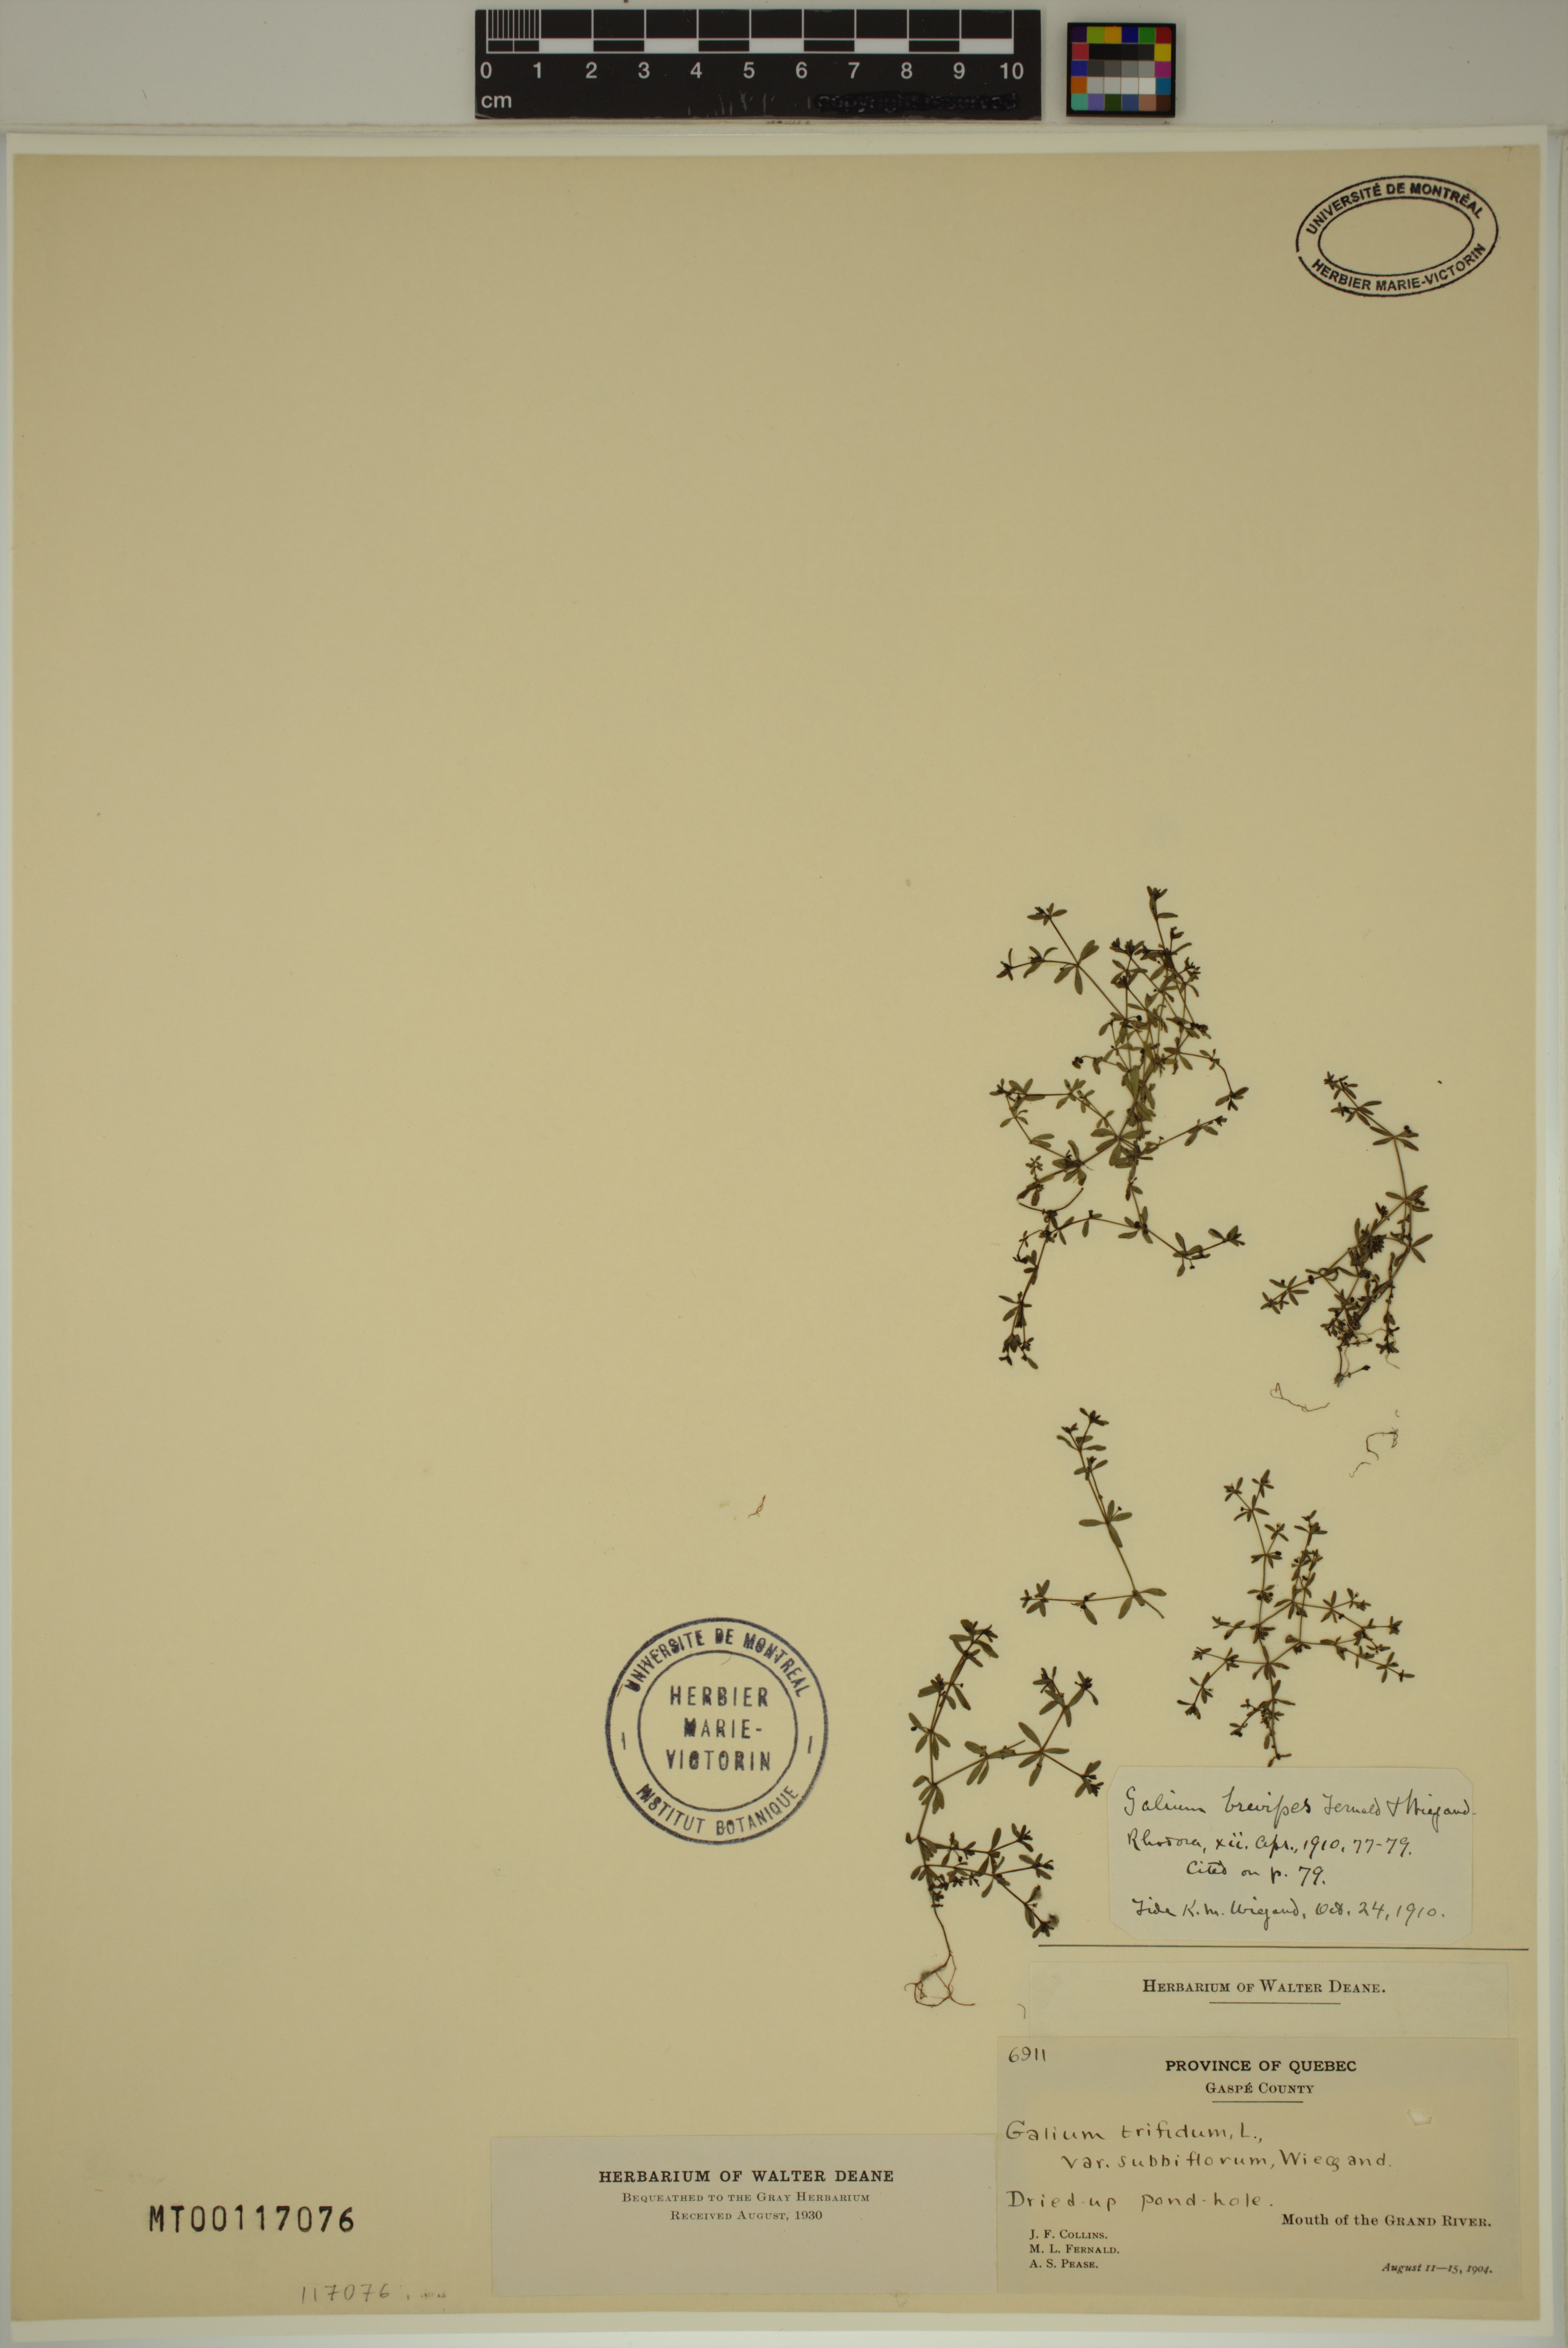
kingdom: Plantae
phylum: Tracheophyta
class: Magnoliopsida
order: Gentianales
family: Rubiaceae
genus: Galium
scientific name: Galium trifidum
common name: Small bedstraw
